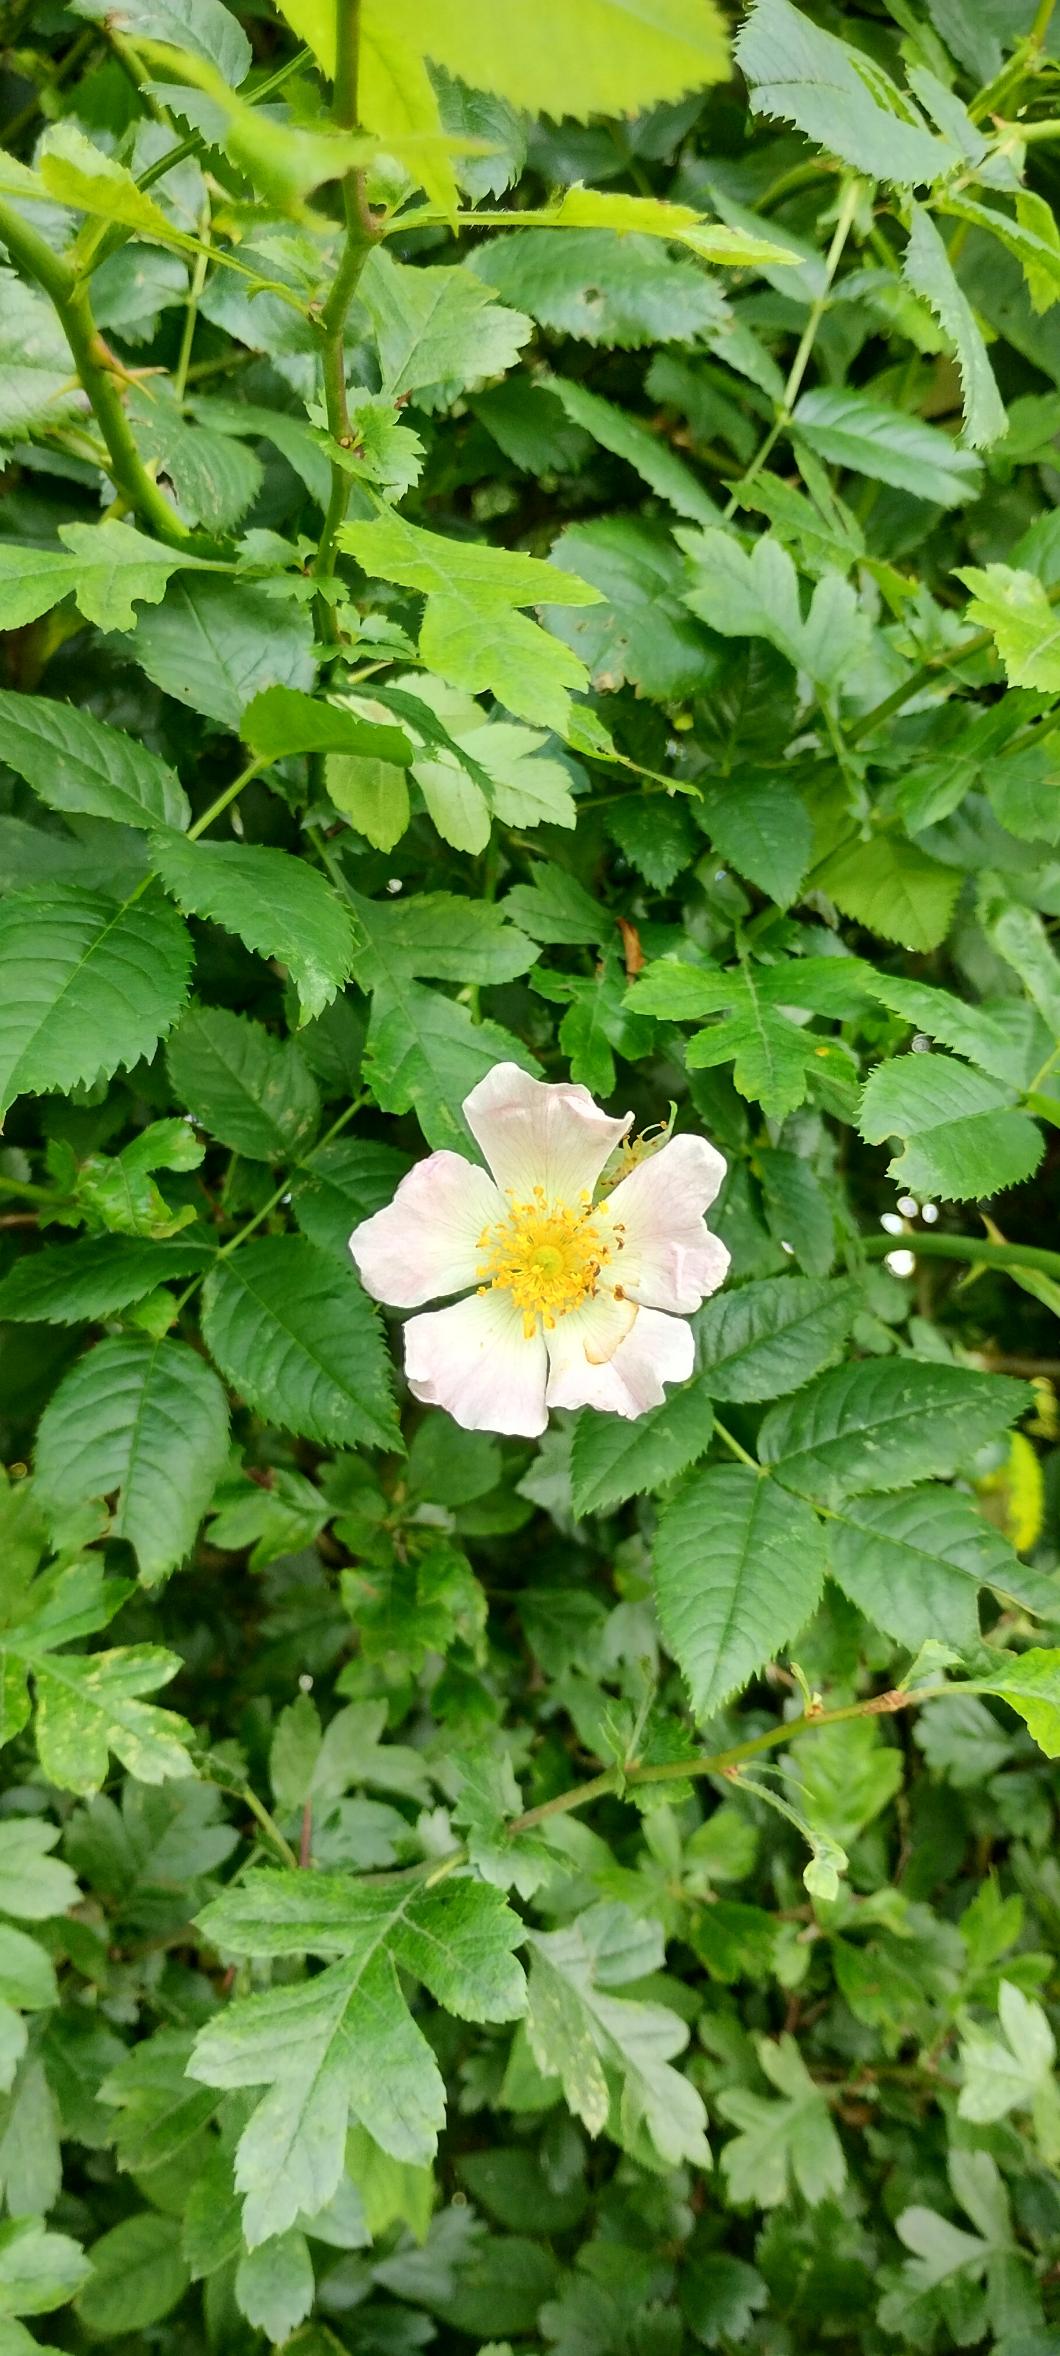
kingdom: Plantae
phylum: Tracheophyta
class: Magnoliopsida
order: Rosales
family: Rosaceae
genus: Rosa
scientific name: Rosa canina
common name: Glat hunde-rose
